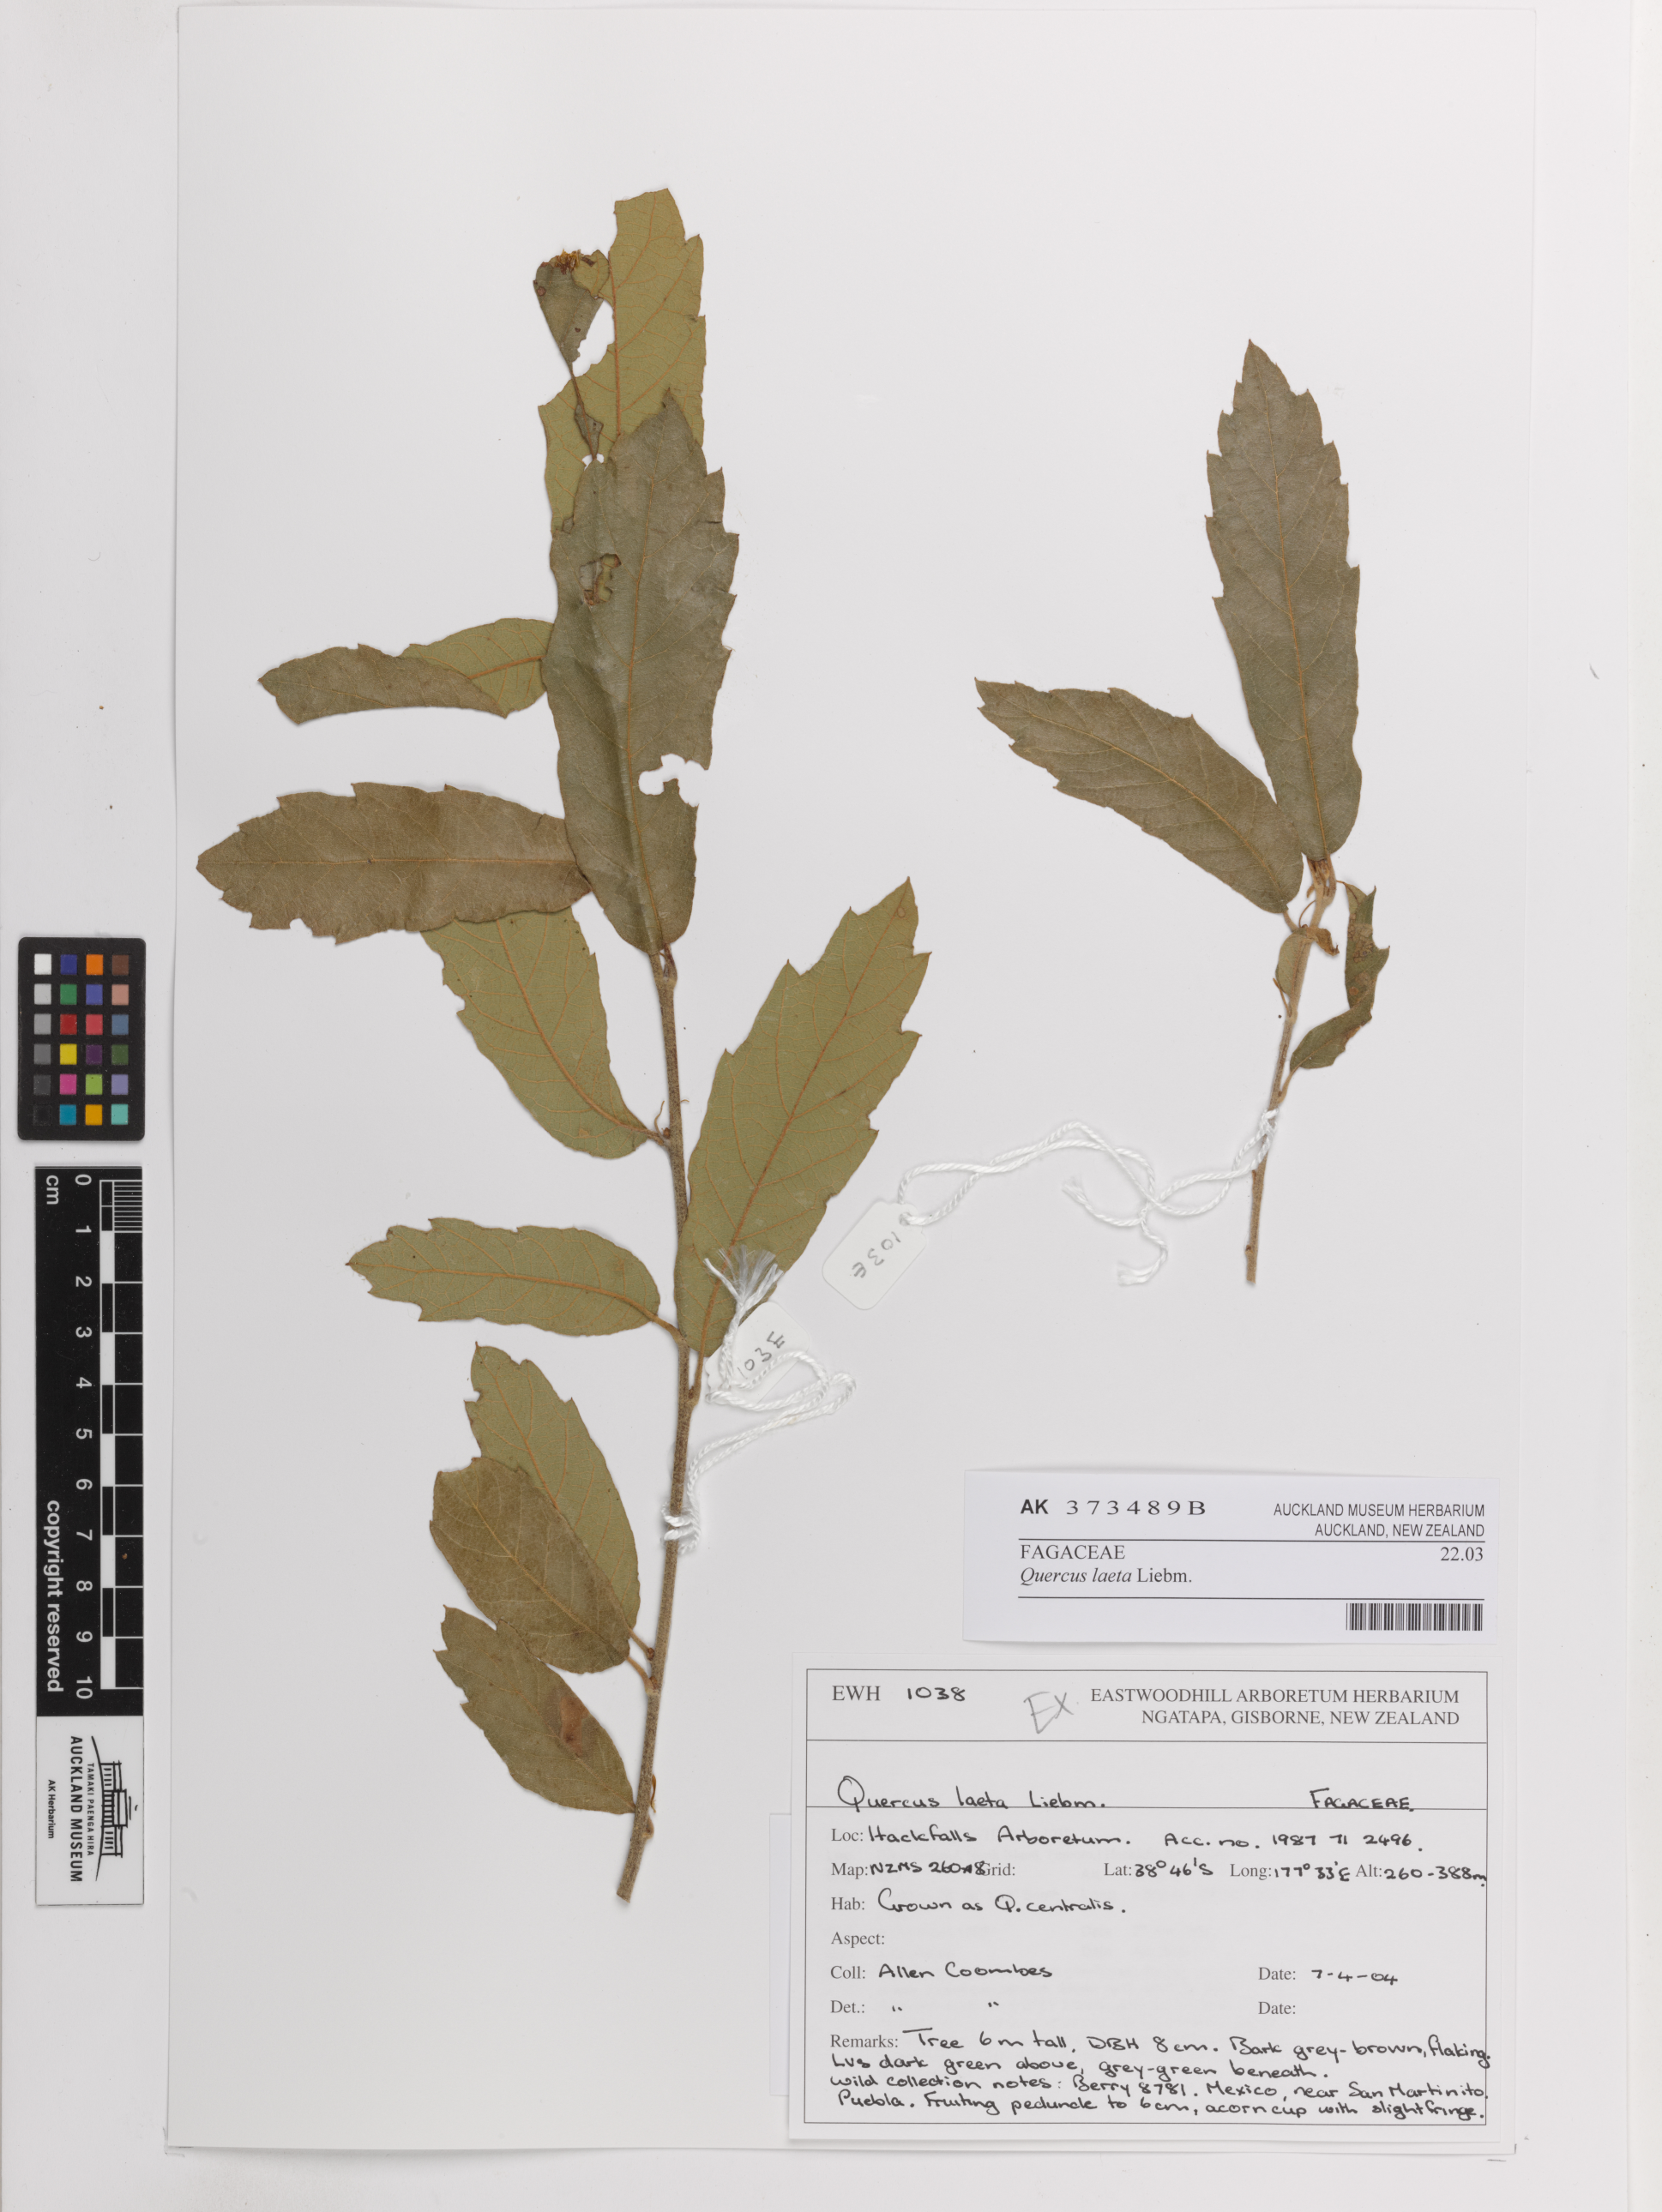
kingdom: Plantae
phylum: Tracheophyta
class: Magnoliopsida
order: Fagales
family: Fagaceae
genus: Quercus
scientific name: Quercus laeta
